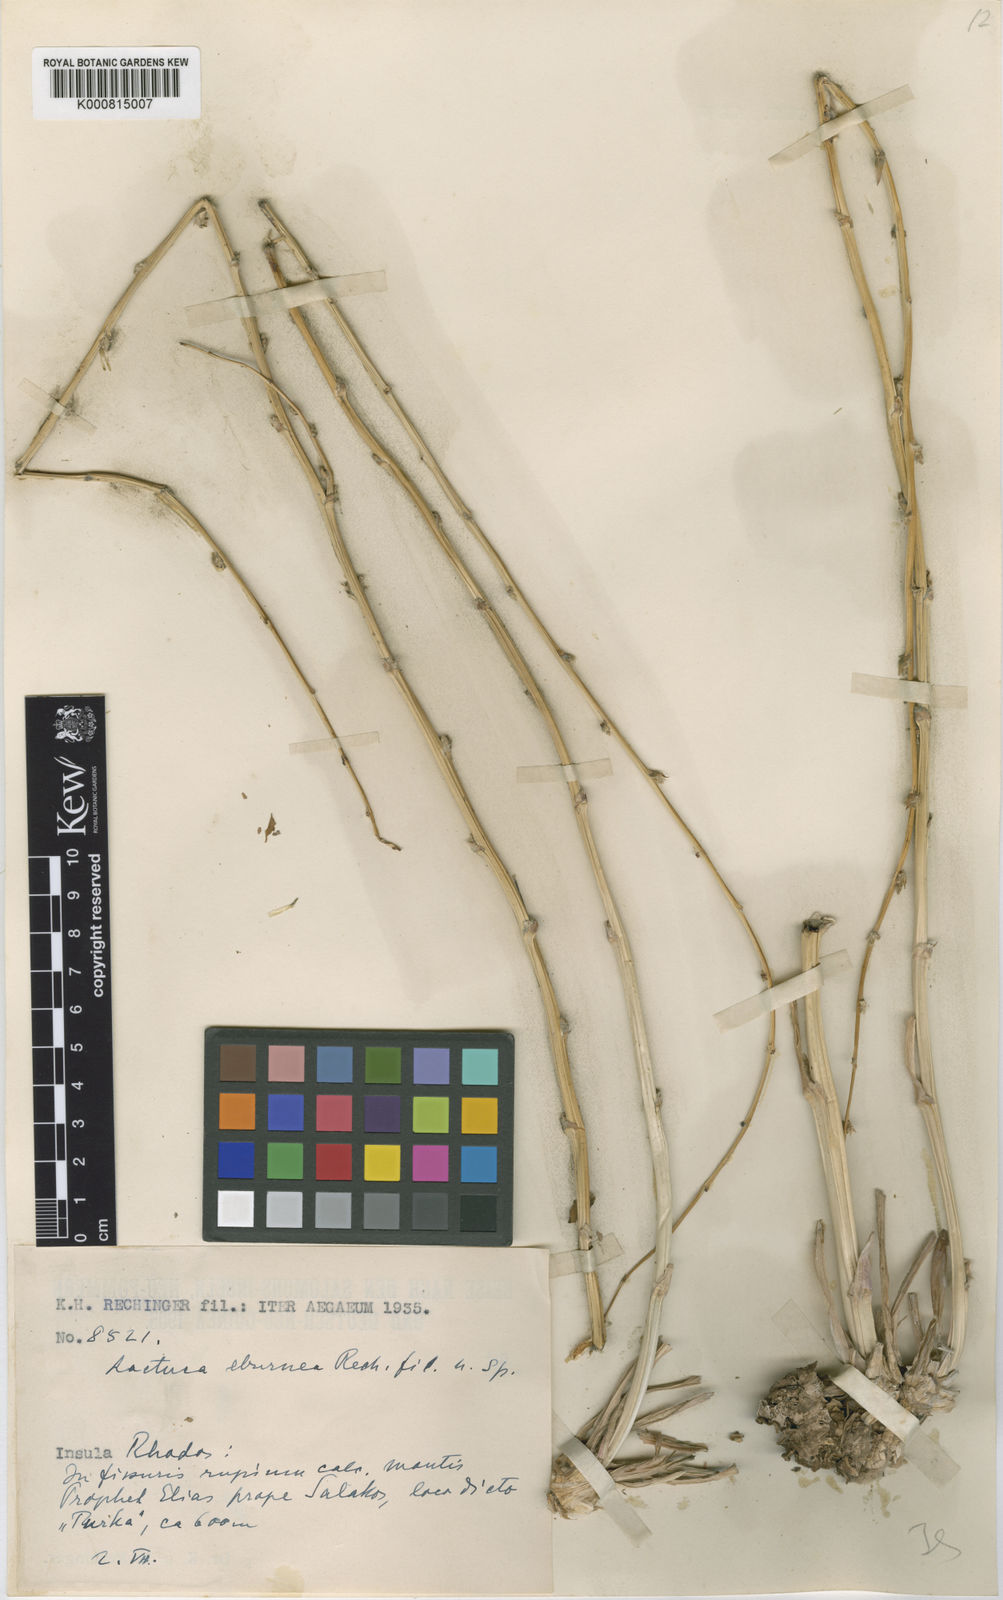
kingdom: Plantae
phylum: Tracheophyta
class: Magnoliopsida
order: Asterales
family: Asteraceae
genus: Lactuca
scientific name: Lactuca acanthifolia
